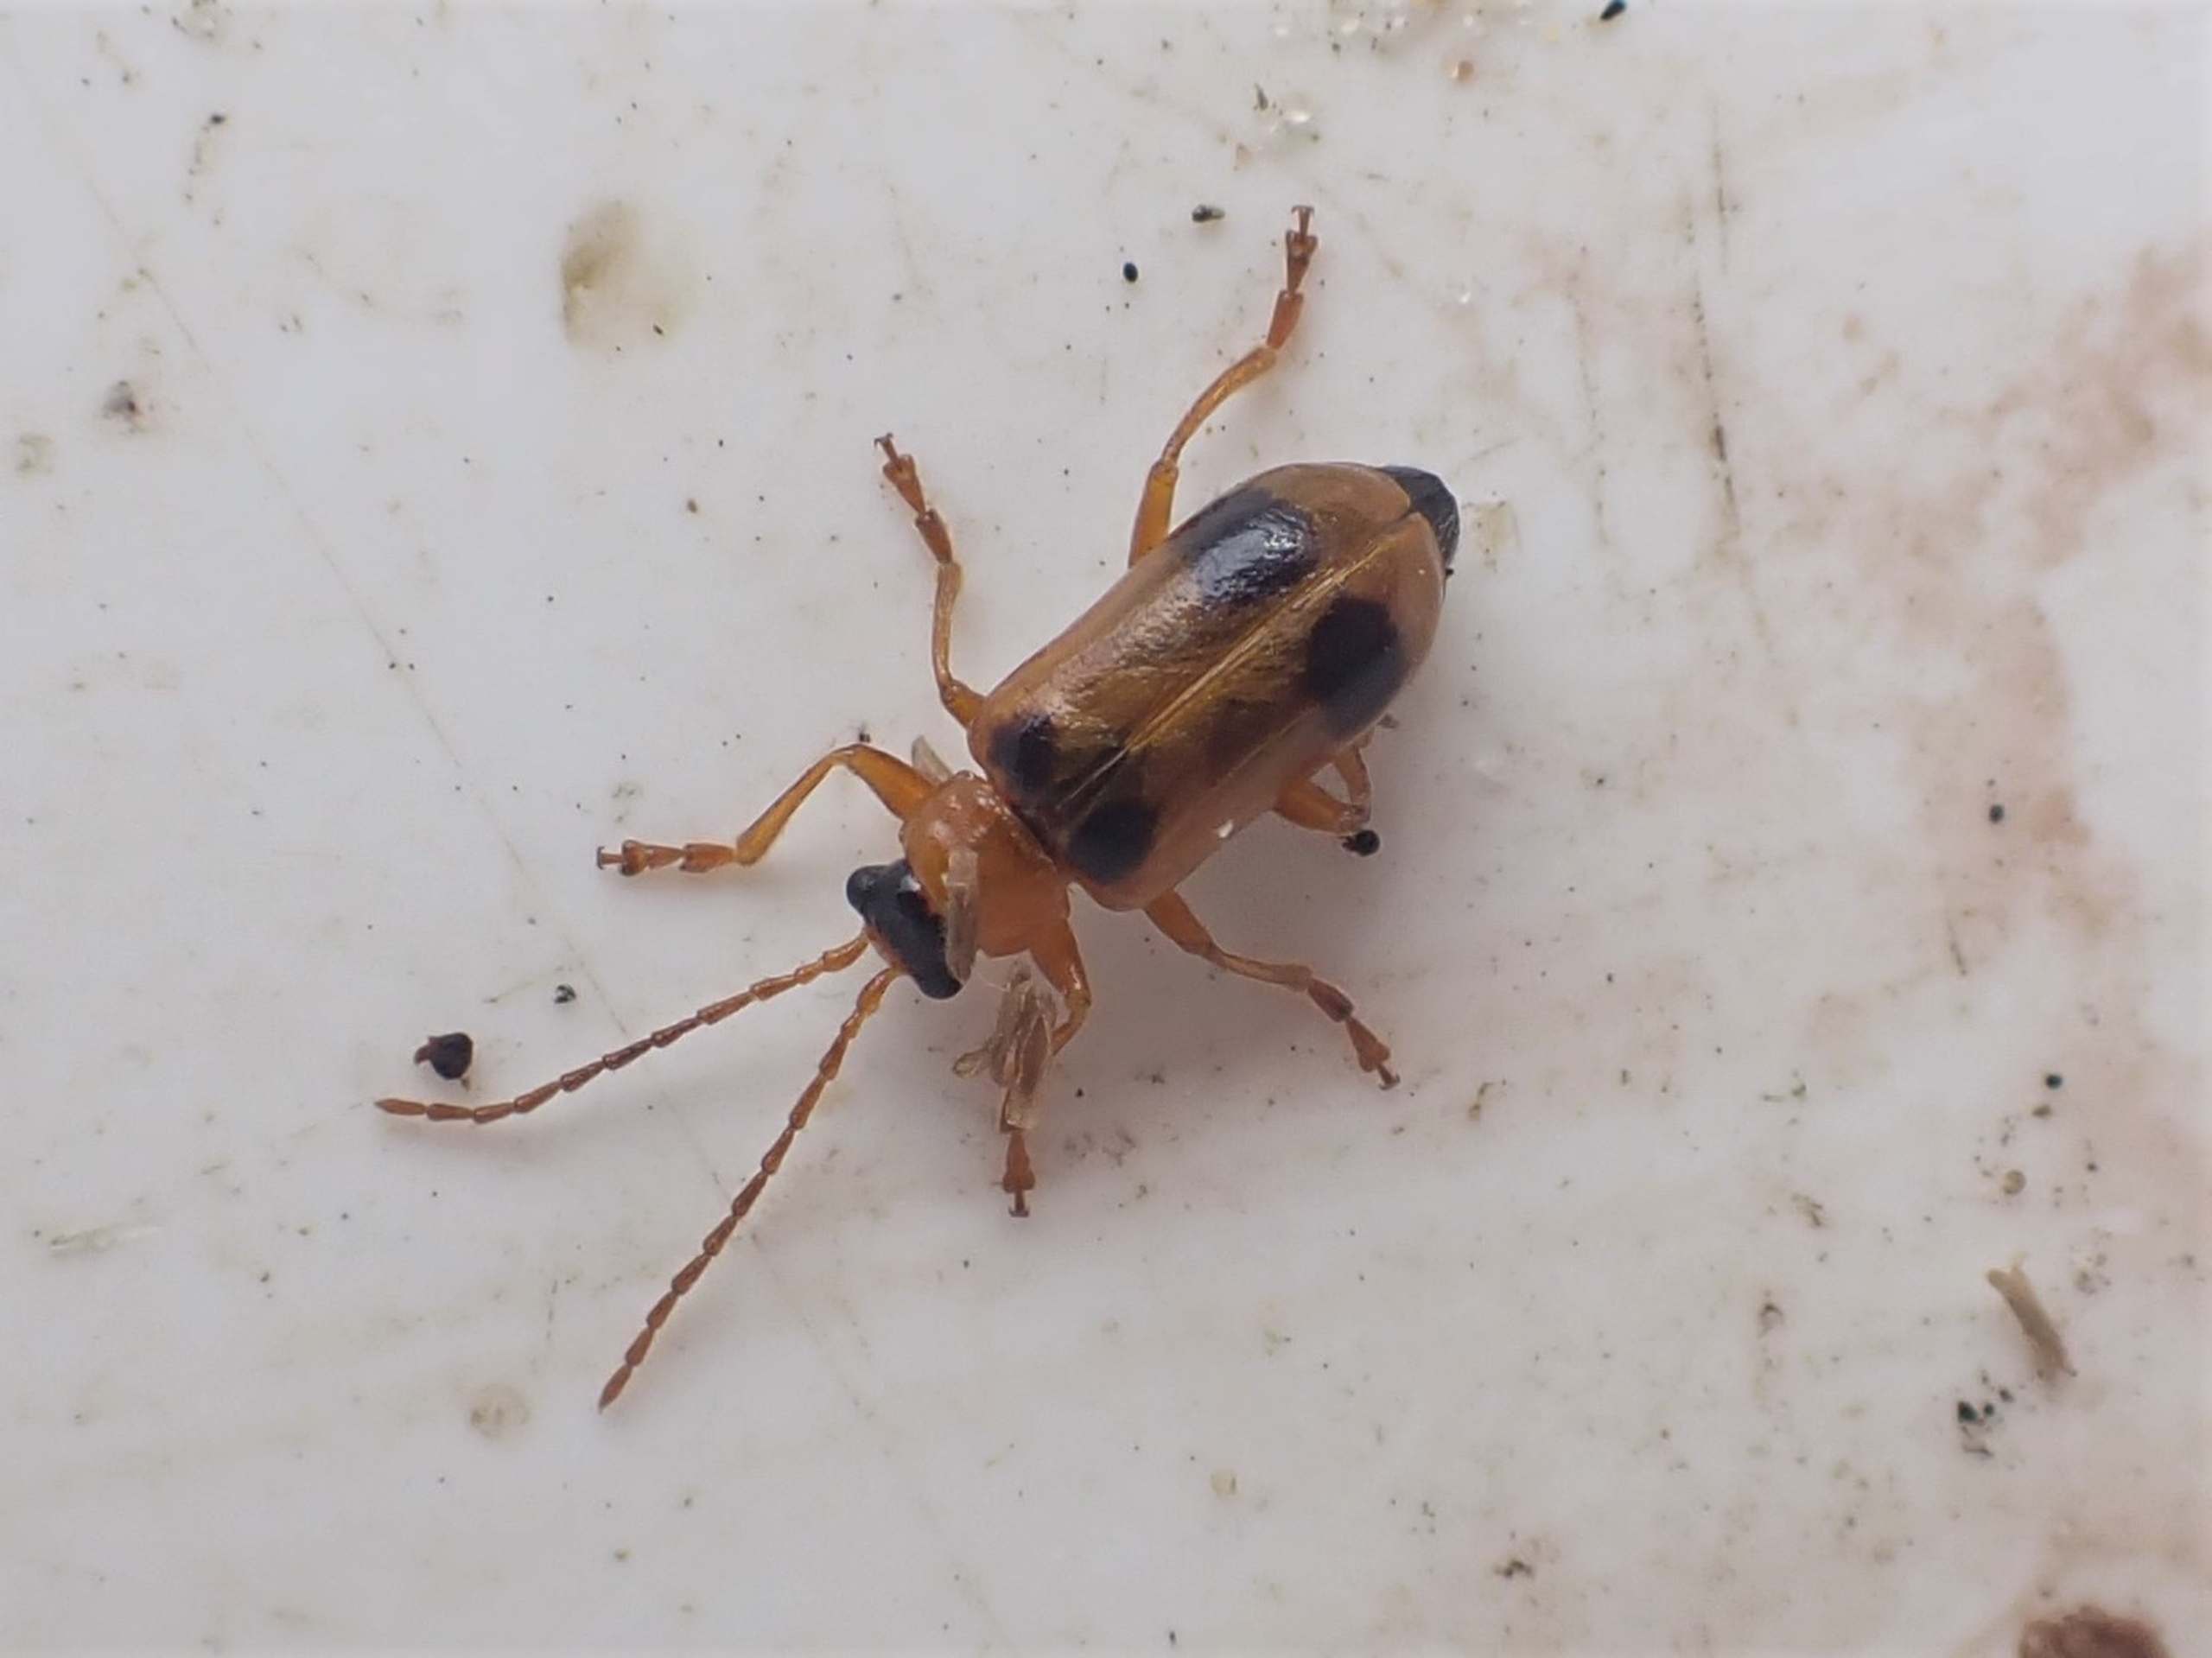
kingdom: Animalia
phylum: Arthropoda
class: Insecta
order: Coleoptera
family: Chrysomelidae
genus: Phyllobrotica
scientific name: Phyllobrotica quadrimaculata
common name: Sortplettet bladbille
